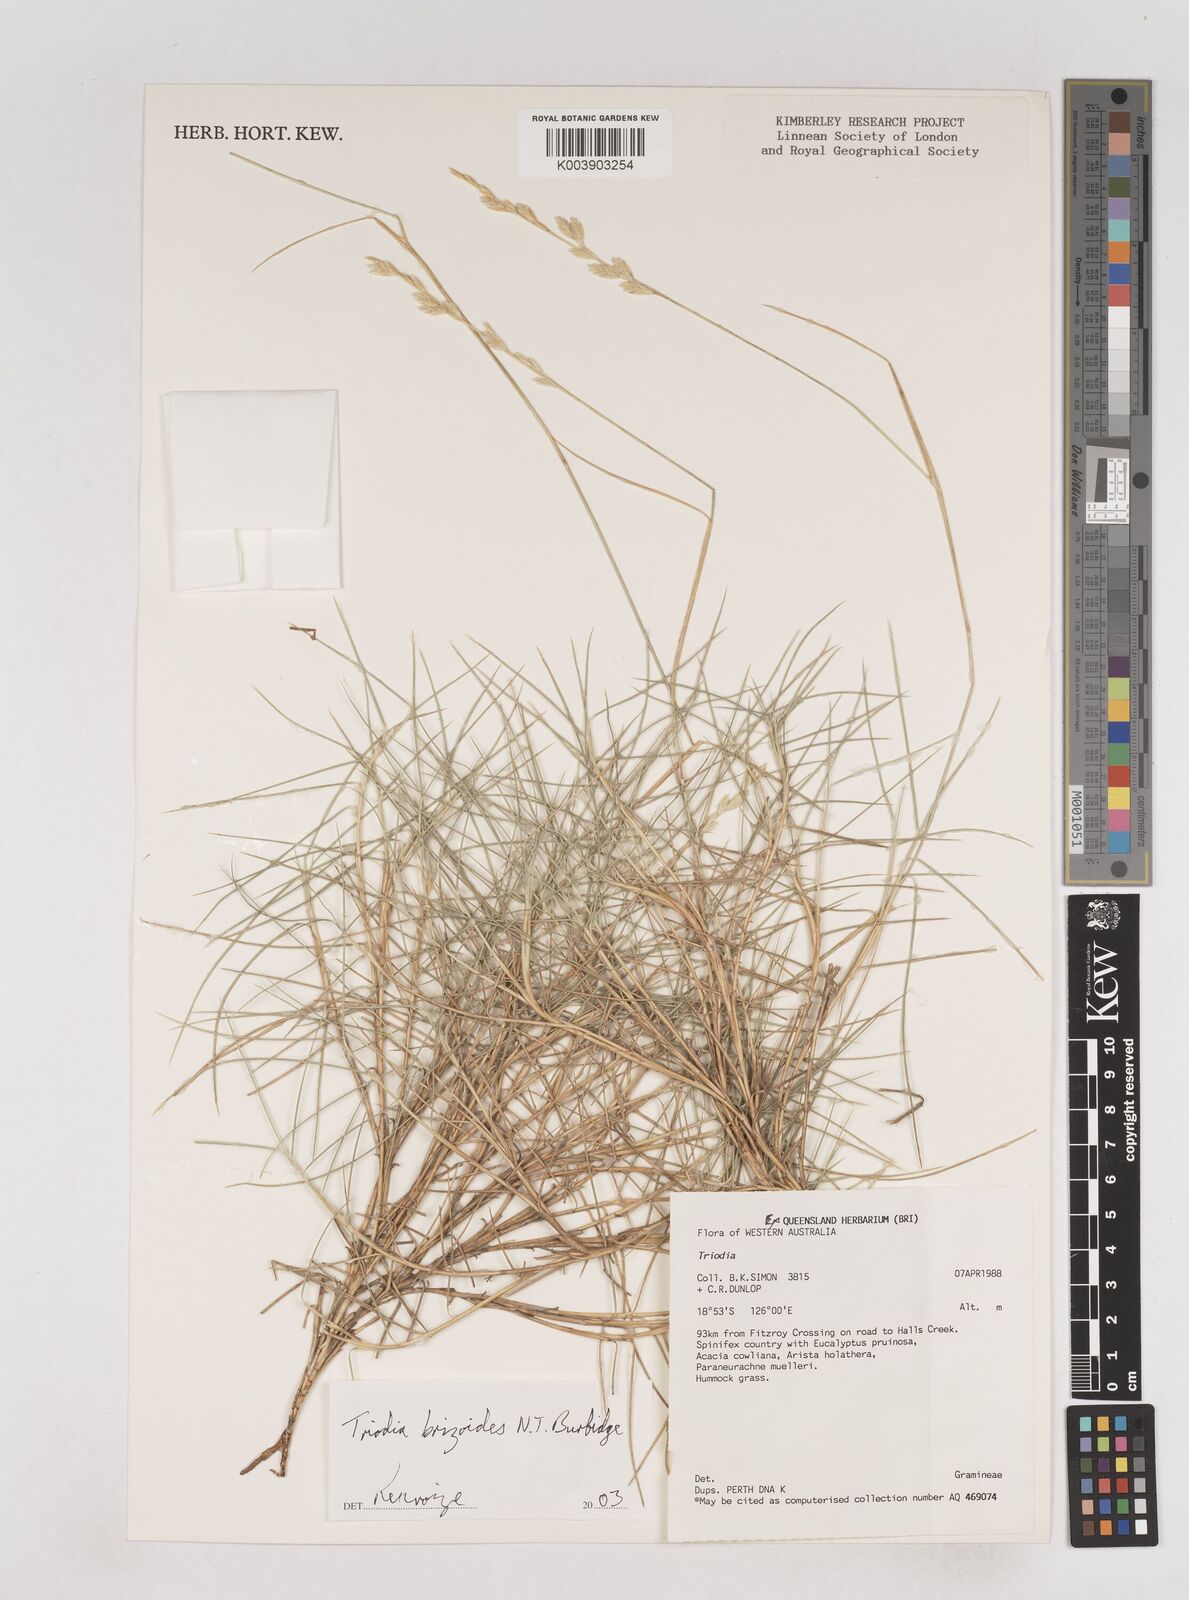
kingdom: Plantae
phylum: Tracheophyta
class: Liliopsida
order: Poales
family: Poaceae
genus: Triodia
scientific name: Triodia brizoides
